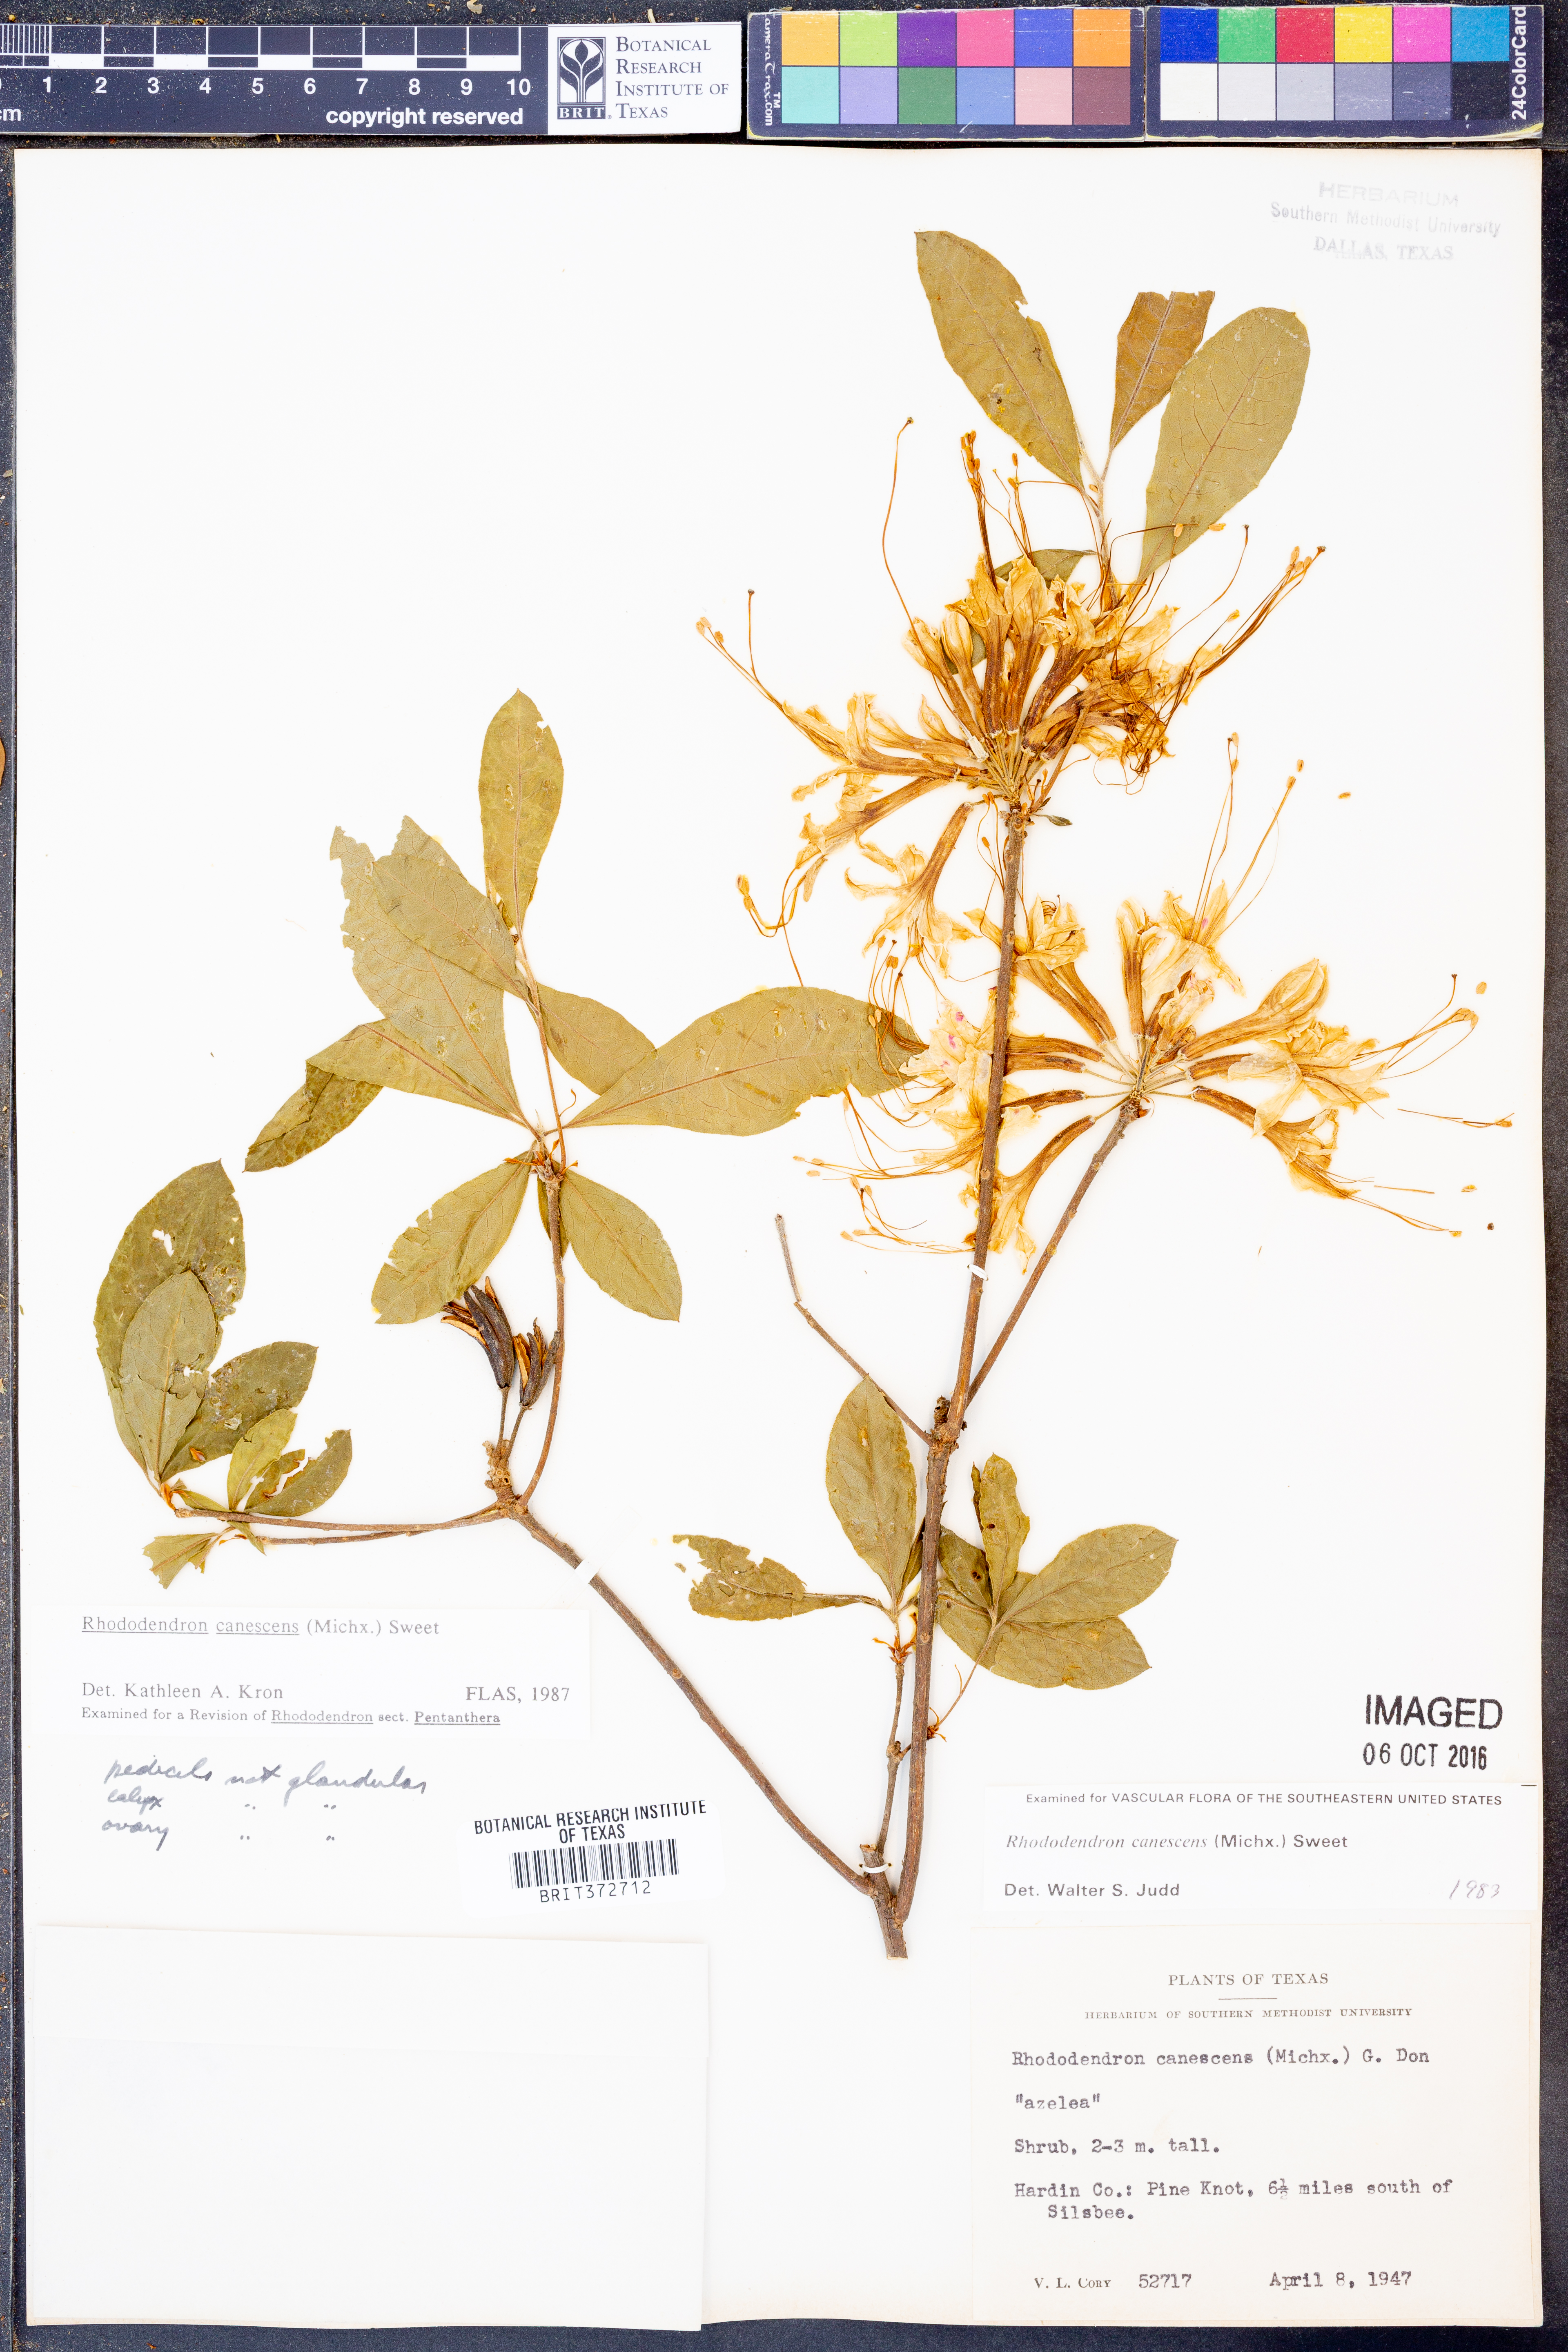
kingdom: Plantae
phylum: Tracheophyta
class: Magnoliopsida
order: Ericales
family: Ericaceae
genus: Rhododendron
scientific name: Rhododendron canescens
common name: Mountain azalea
